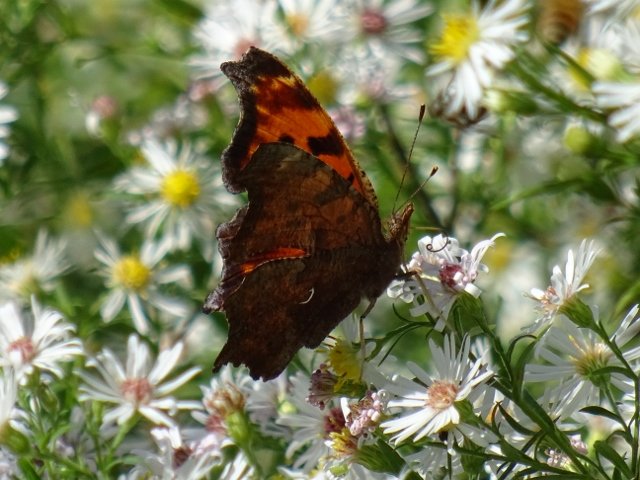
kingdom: Animalia
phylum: Arthropoda
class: Insecta
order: Lepidoptera
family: Nymphalidae
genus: Polygonia
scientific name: Polygonia comma
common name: Eastern Comma
